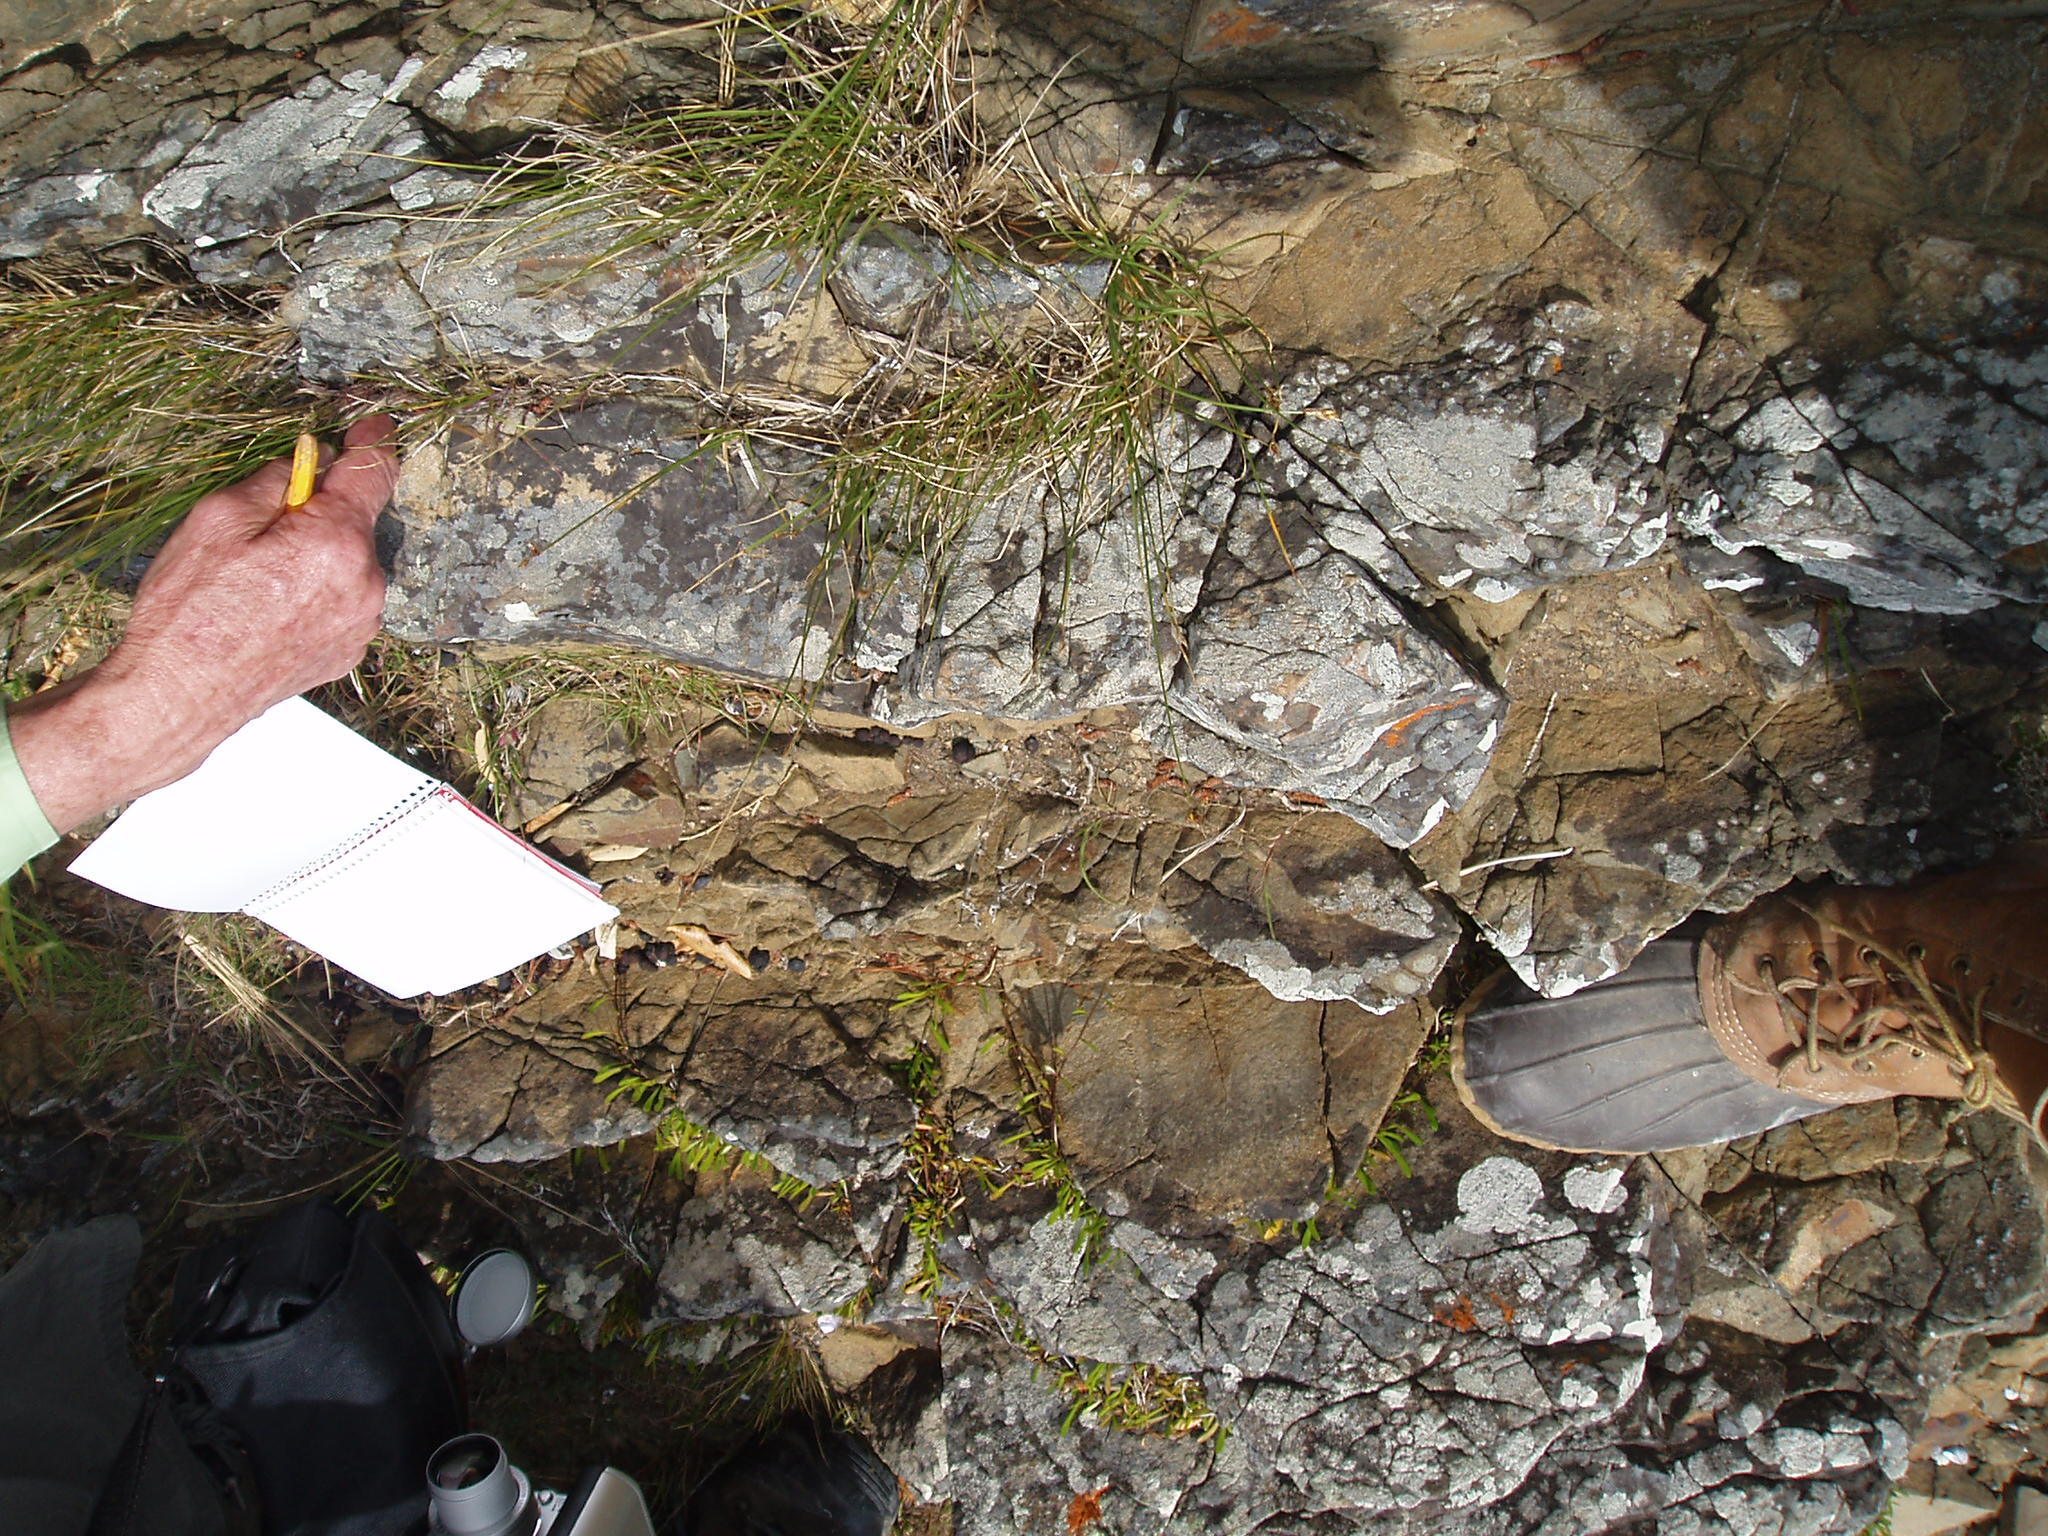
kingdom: Plantae
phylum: Tracheophyta
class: Liliopsida
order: Poales
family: Cyperaceae
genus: Carex
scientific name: Carex divisa
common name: Divided sedge
